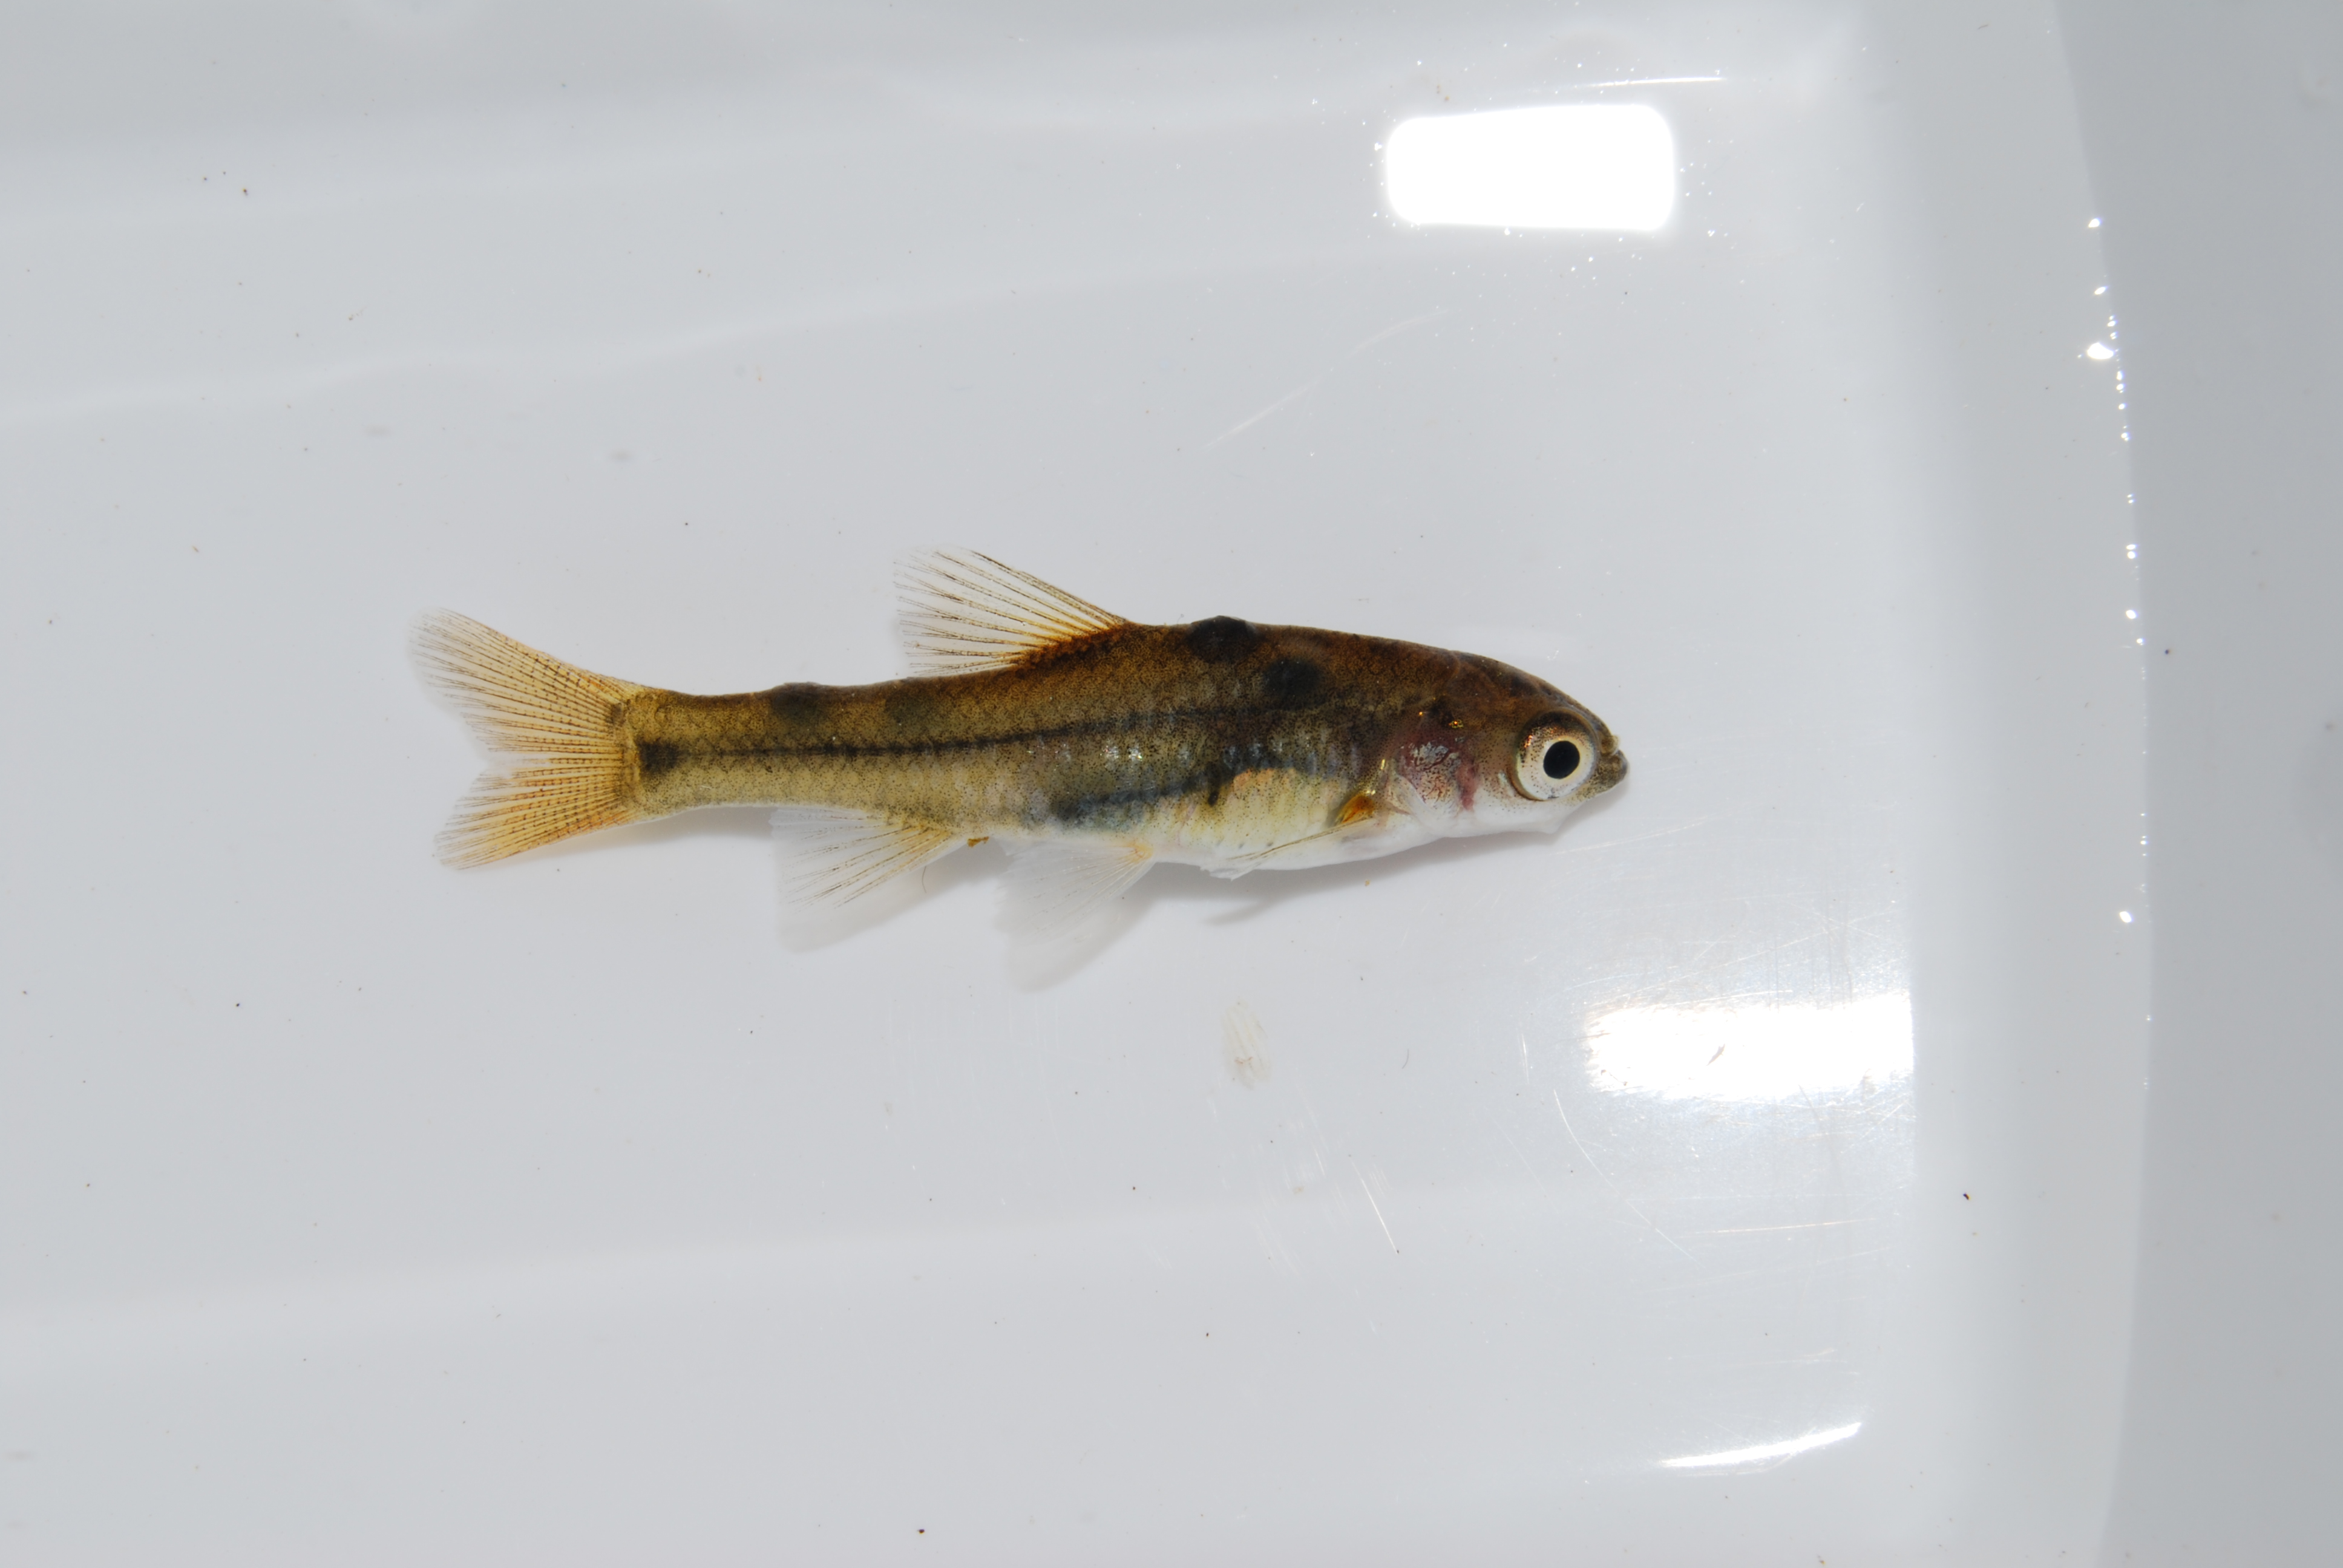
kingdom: Animalia
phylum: Chordata
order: Cypriniformes
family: Cyprinidae
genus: Pseudobarbus
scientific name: Pseudobarbus afer
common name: Eastern cape redfin
